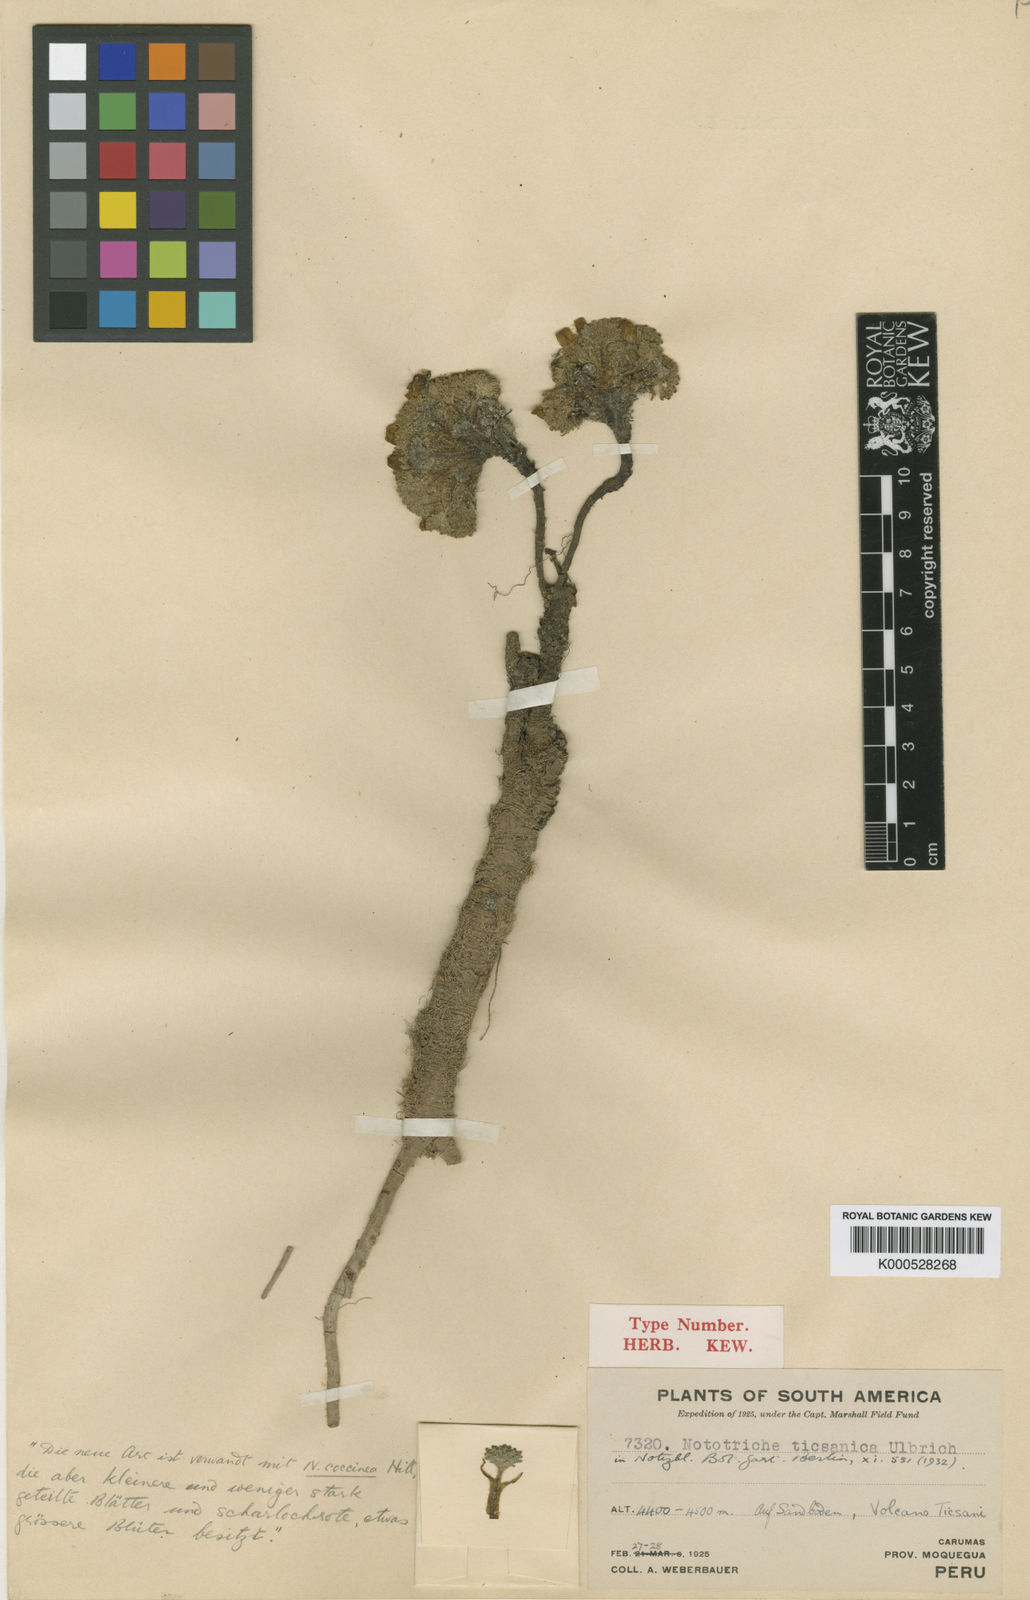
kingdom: Plantae
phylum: Tracheophyta
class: Magnoliopsida
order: Malvales
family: Malvaceae
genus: Nototriche
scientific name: Nototriche obcuneata
